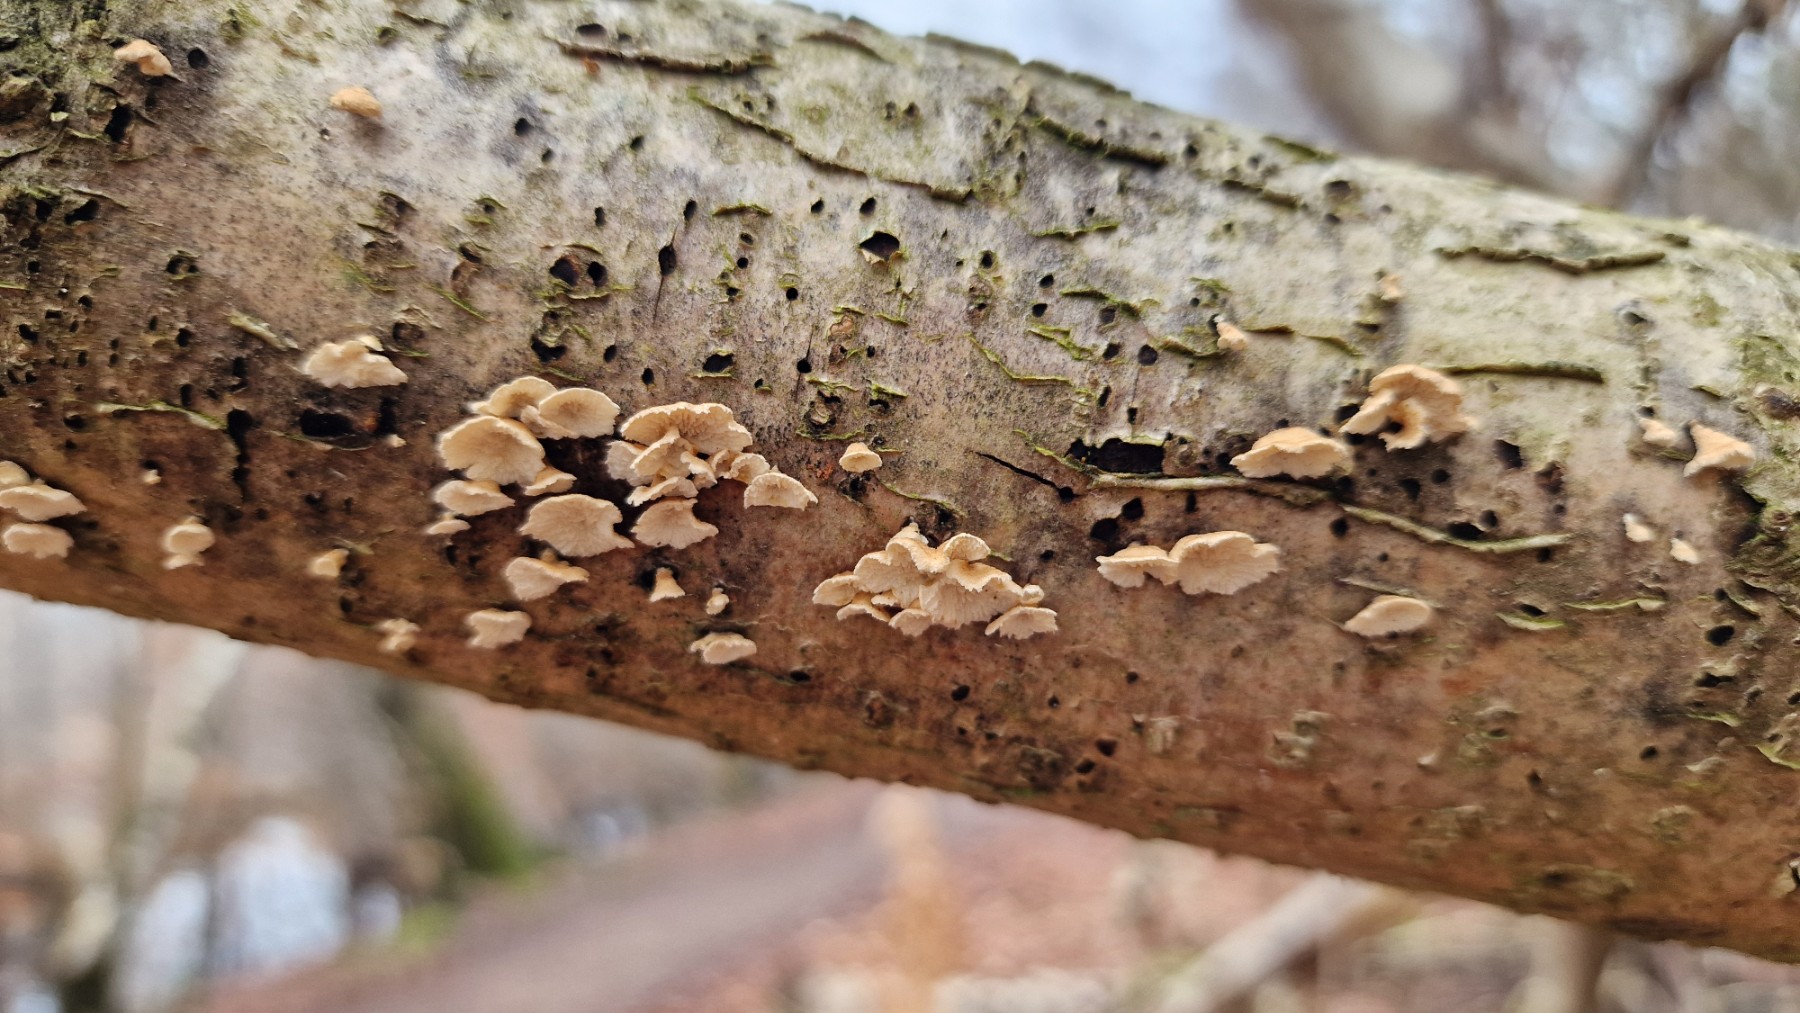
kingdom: Fungi
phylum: Basidiomycota
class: Agaricomycetes
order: Amylocorticiales
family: Amylocorticiaceae
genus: Plicaturopsis
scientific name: Plicaturopsis crispa
